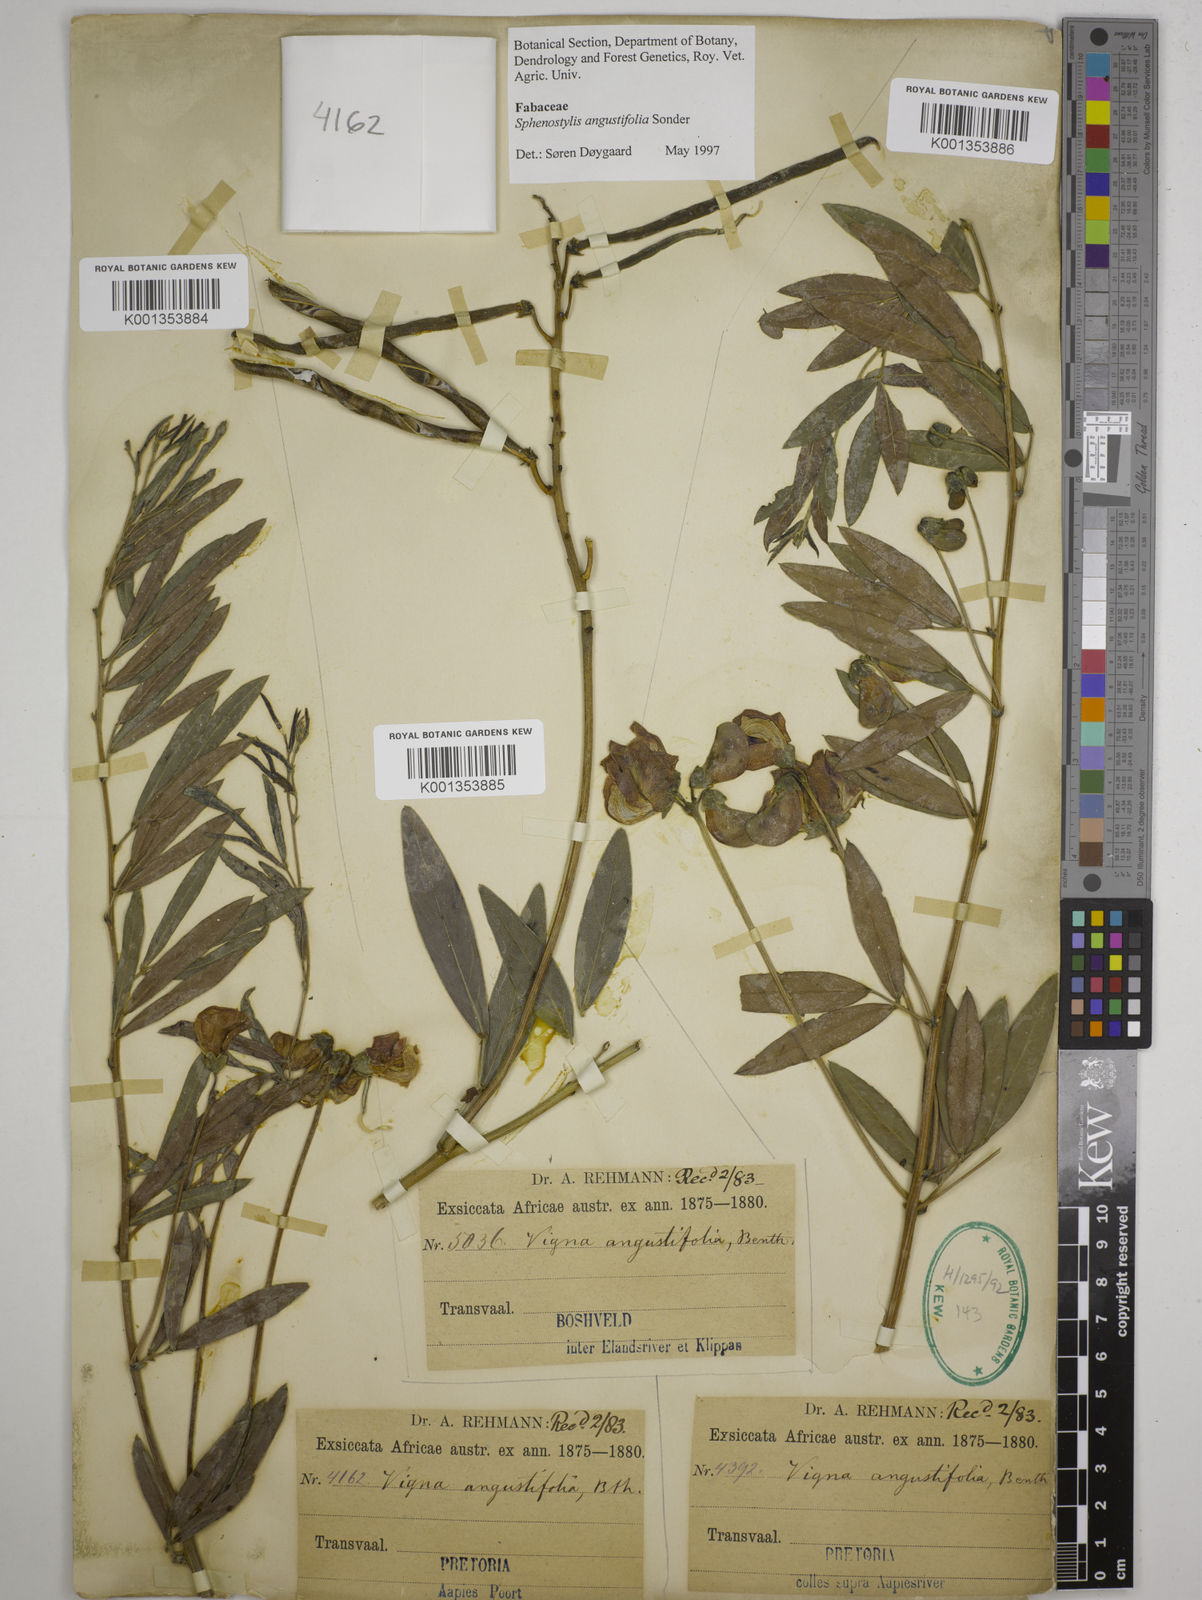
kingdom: Plantae
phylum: Tracheophyta
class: Magnoliopsida
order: Fabales
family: Fabaceae
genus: Sphenostylis
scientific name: Sphenostylis angustifolia
